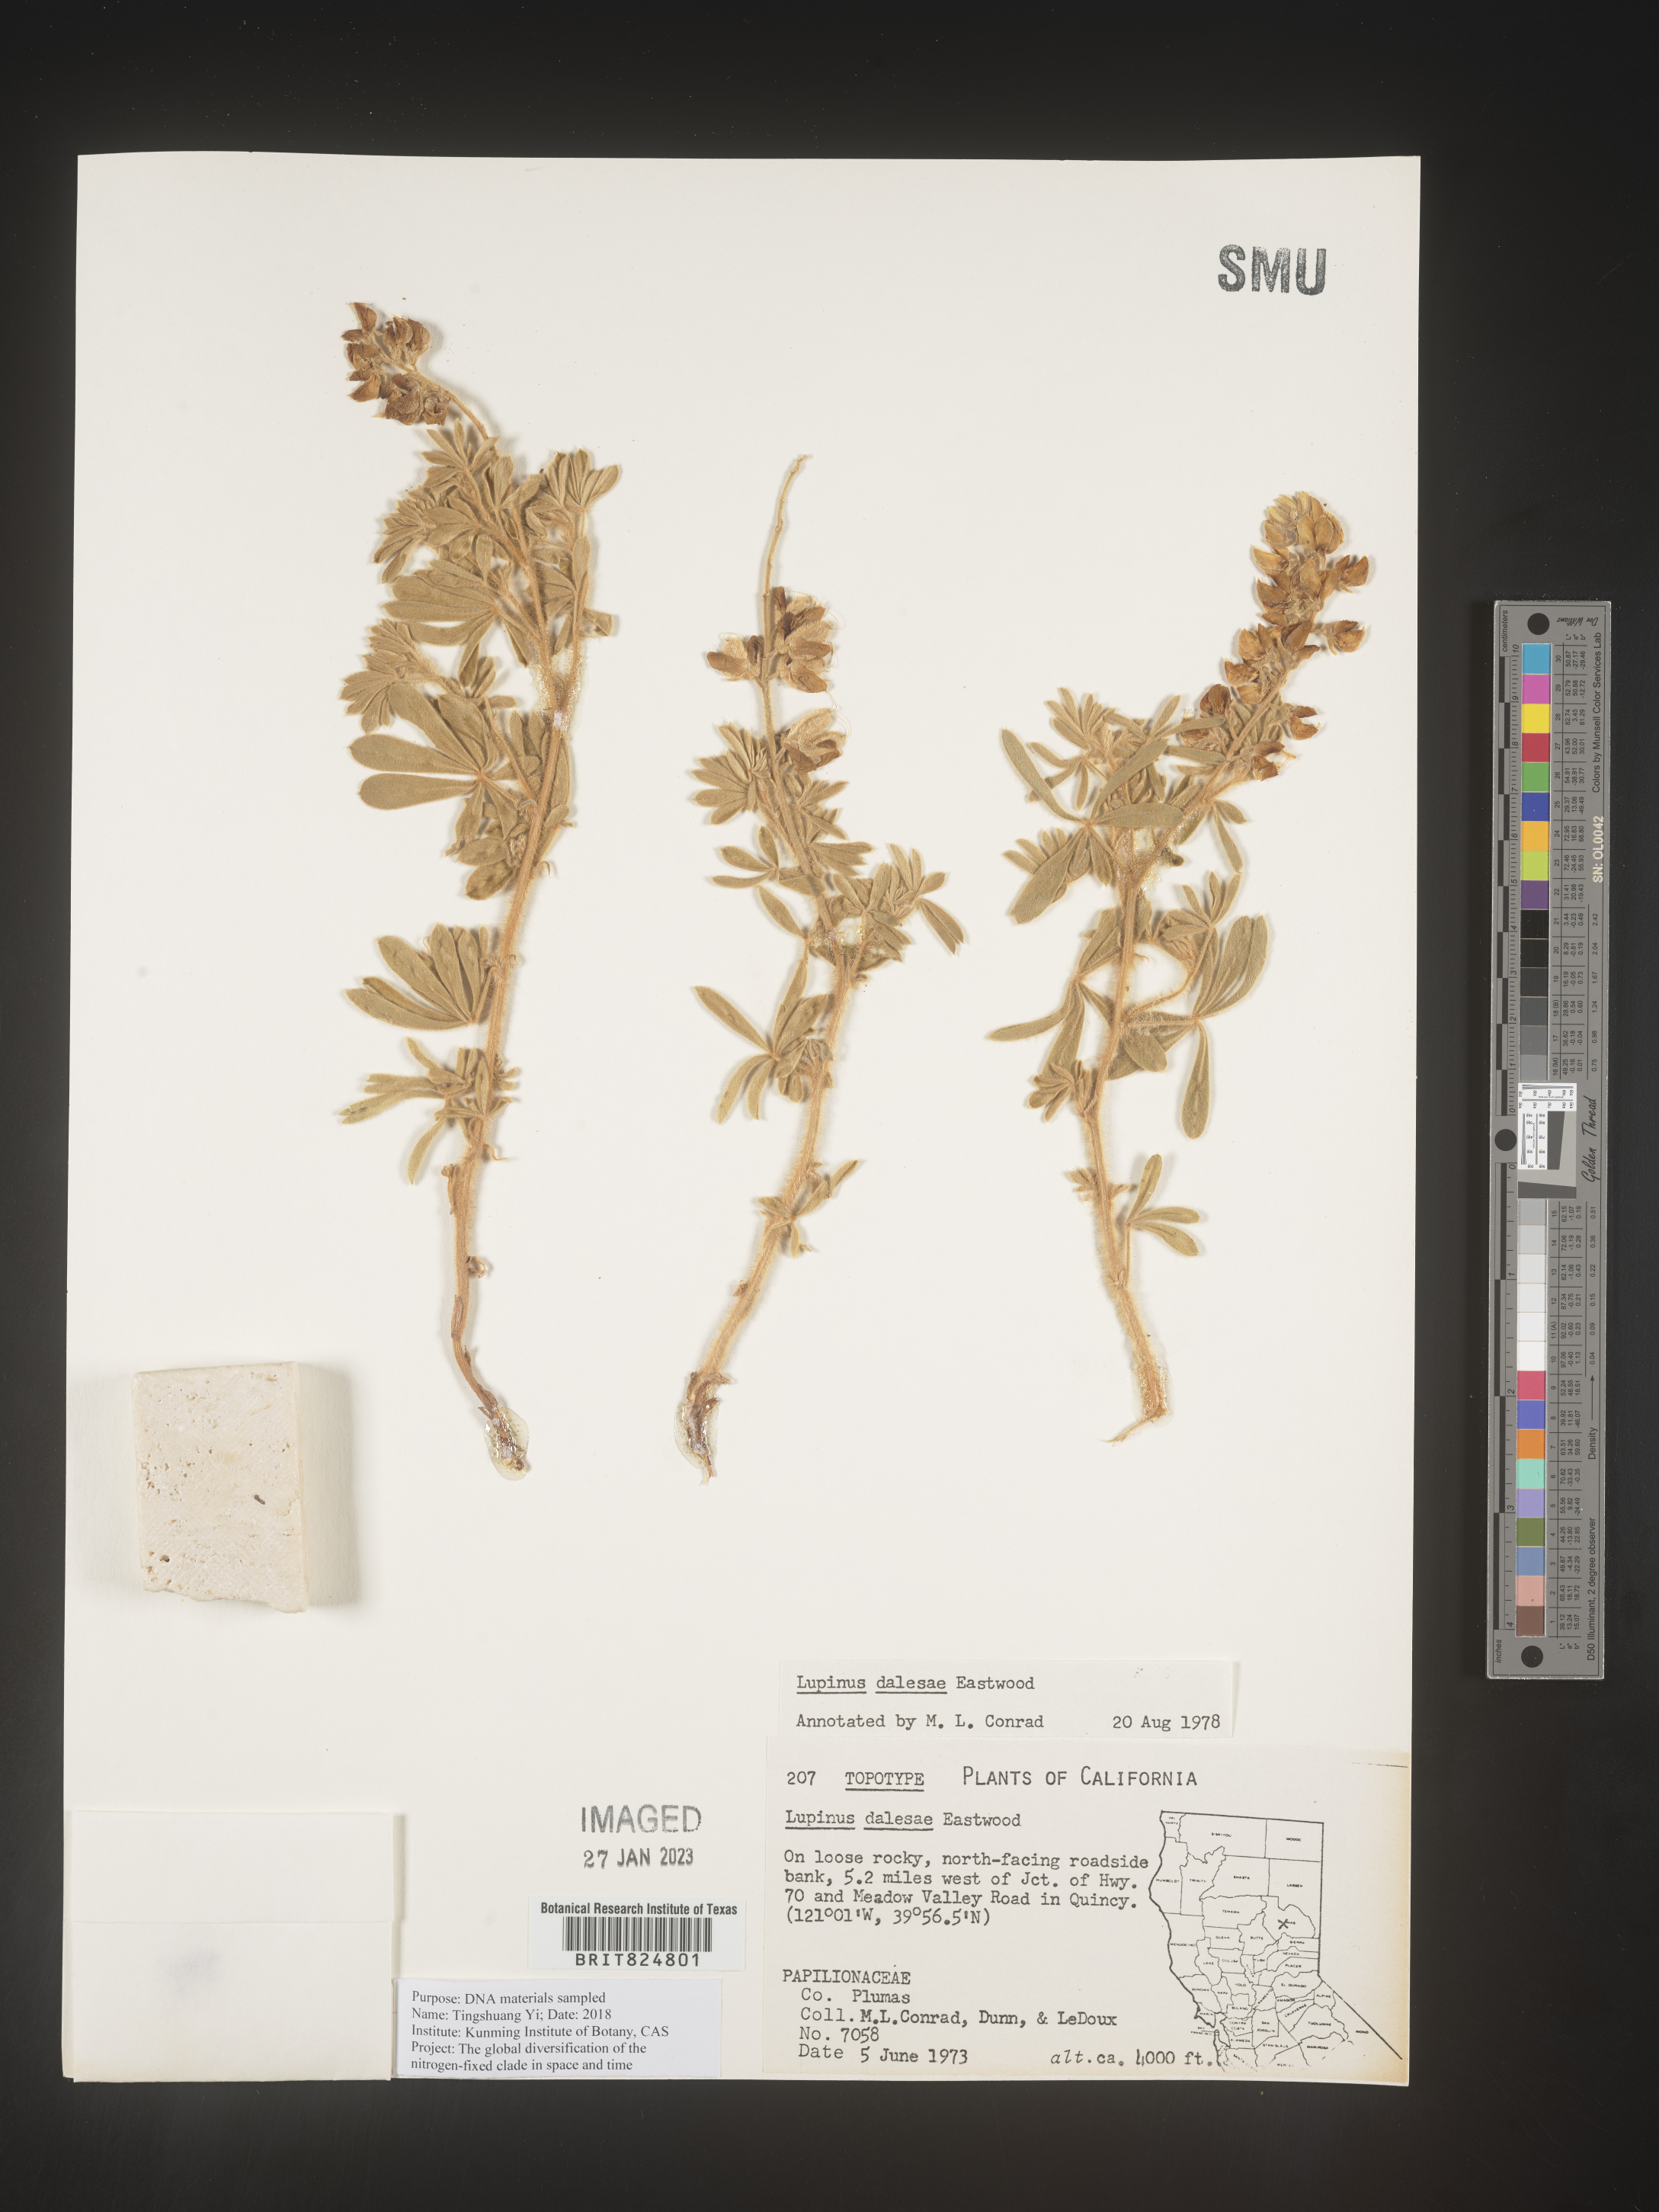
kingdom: Plantae
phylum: Tracheophyta
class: Magnoliopsida
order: Fabales
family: Fabaceae
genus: Lupinus
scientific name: Lupinus
